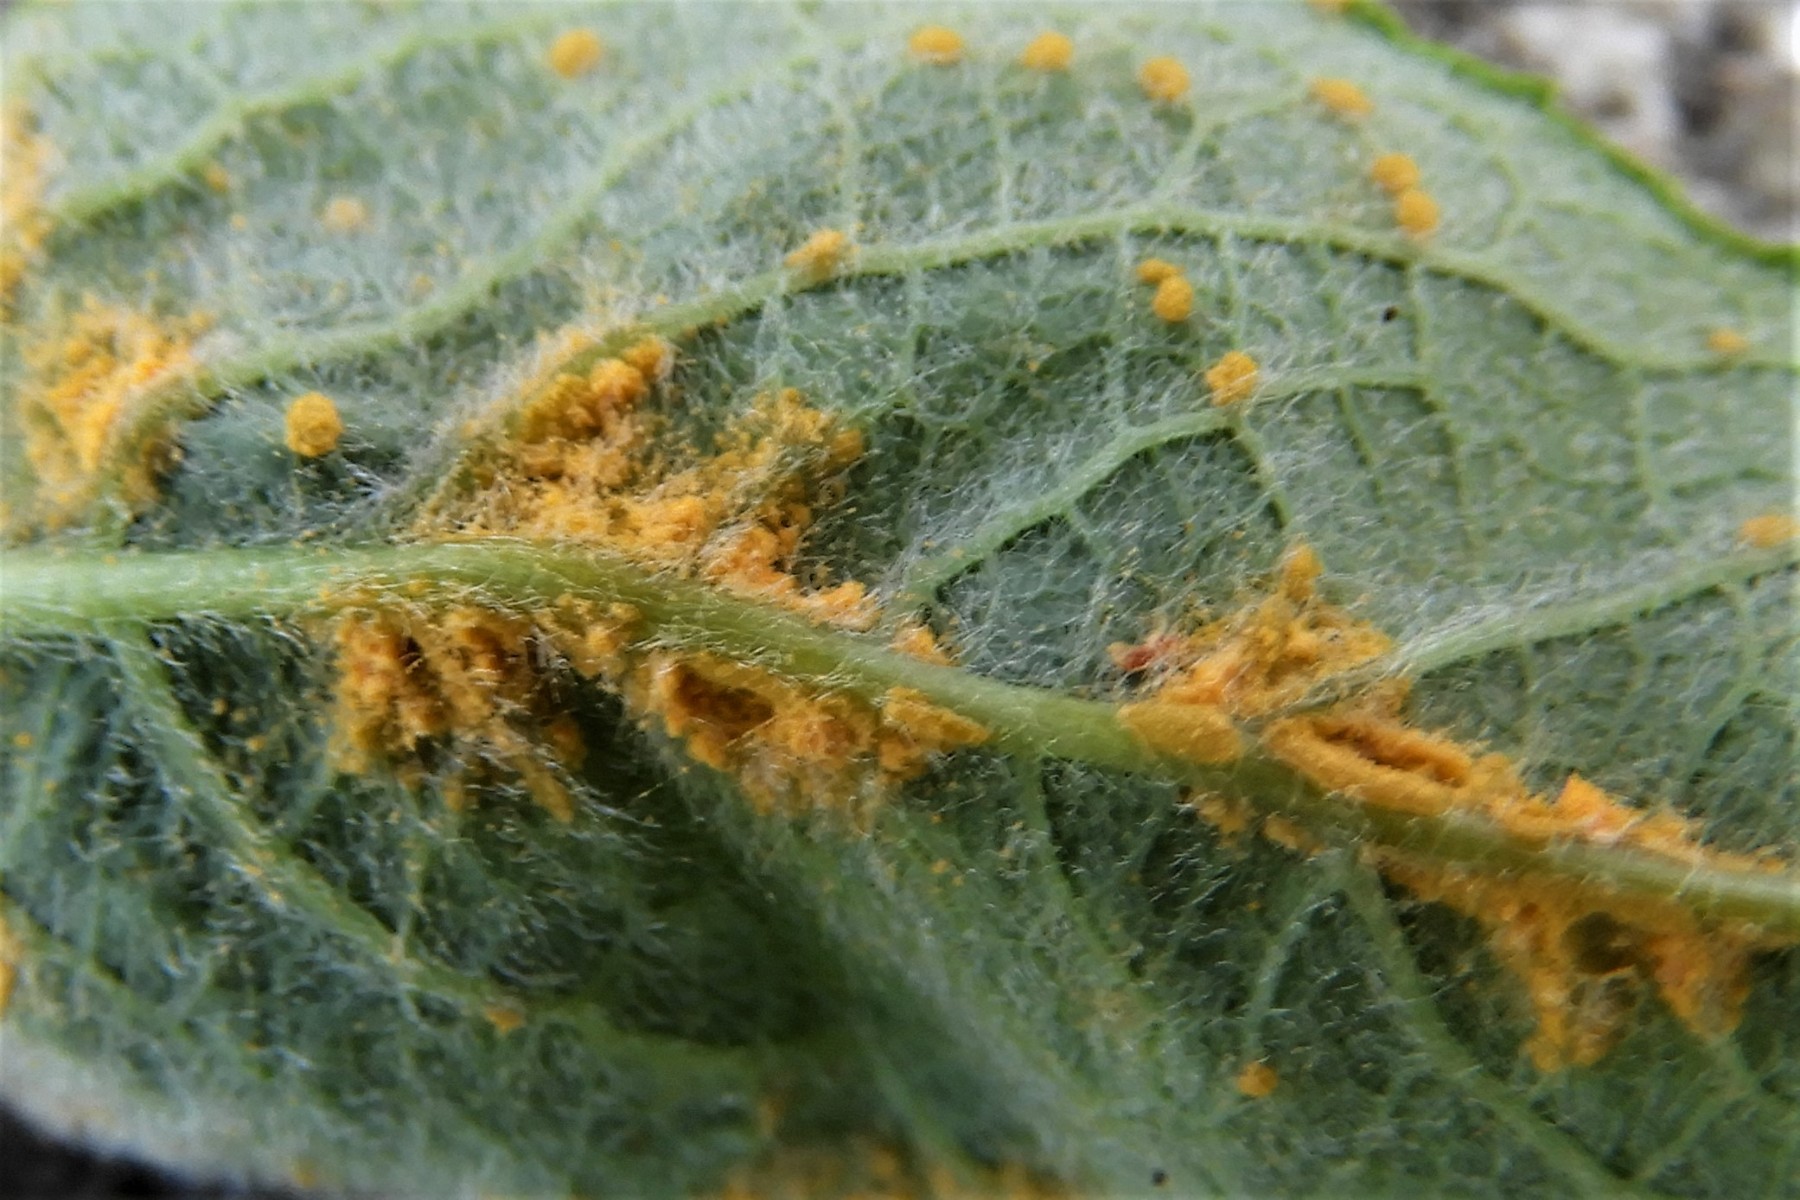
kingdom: Fungi
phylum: Basidiomycota
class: Pucciniomycetes
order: Pucciniales
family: Melampsoraceae
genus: Melampsora
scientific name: Melampsora epitea
